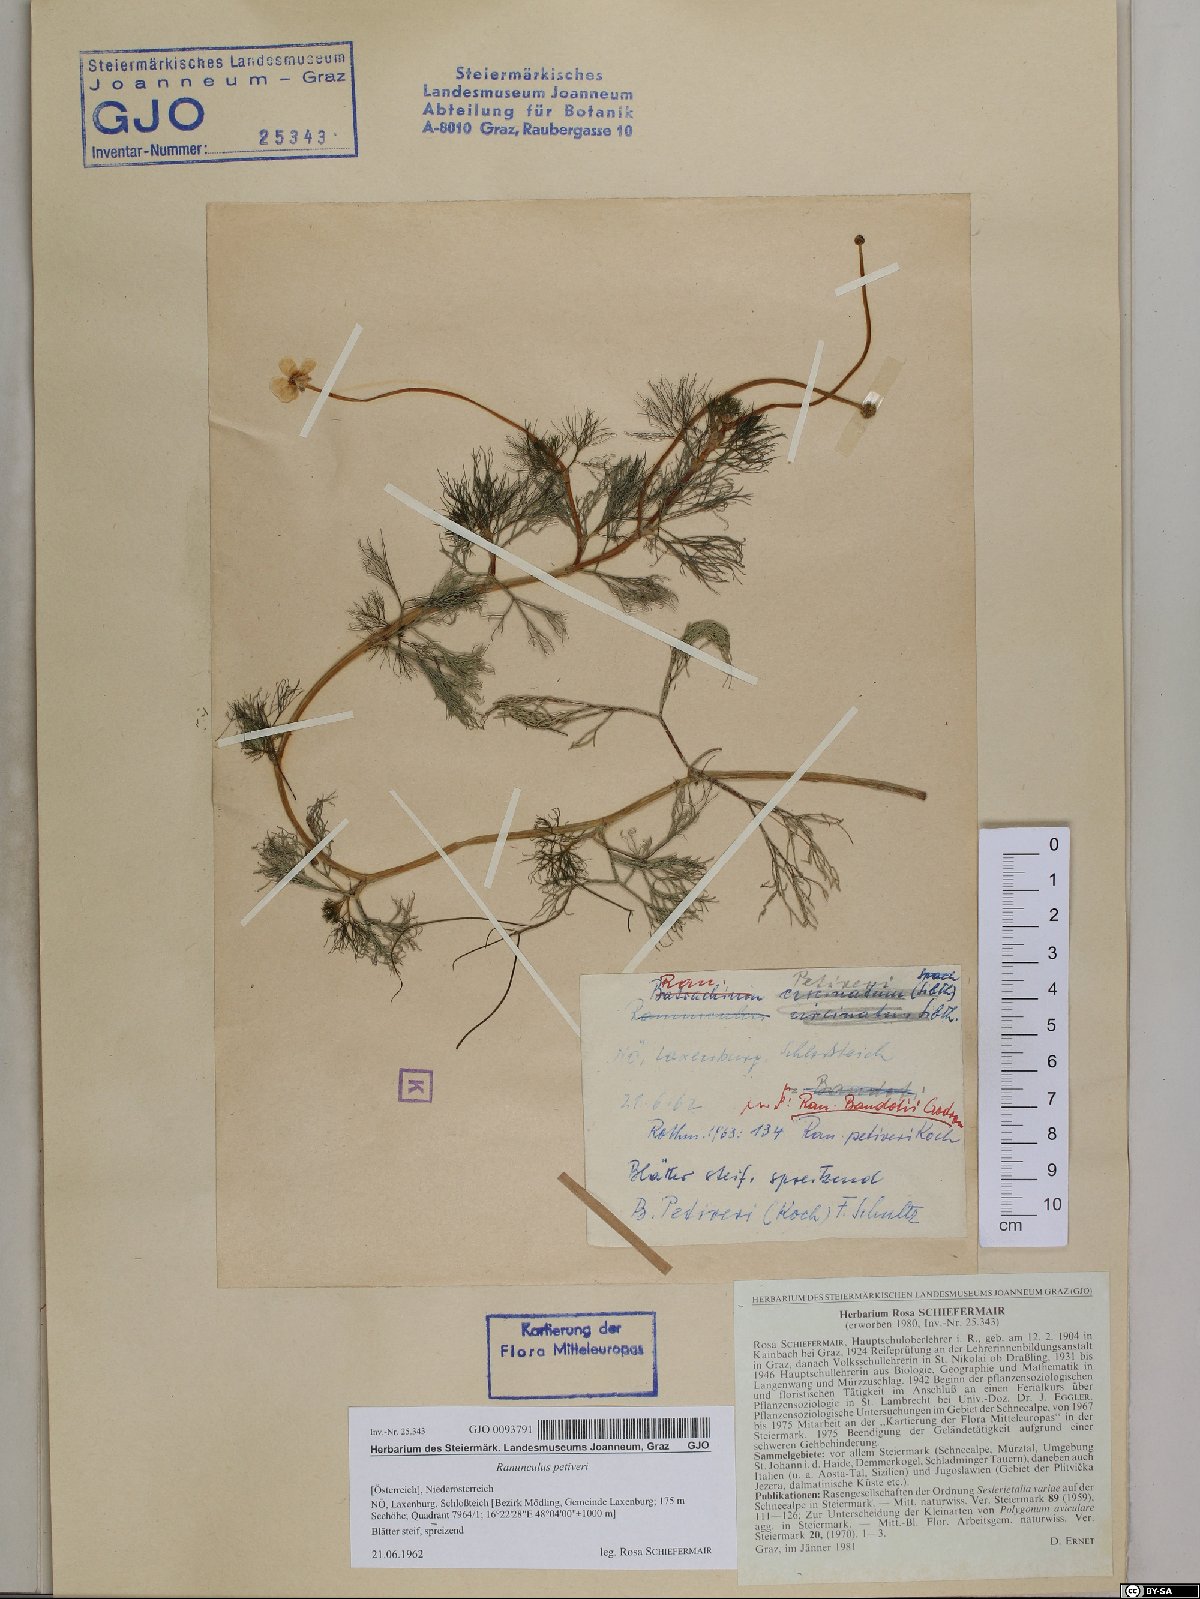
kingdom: Plantae
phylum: Tracheophyta
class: Magnoliopsida
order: Ranunculales
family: Ranunculaceae
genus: Ranunculus
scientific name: Ranunculus tripartitus
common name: Three-lobed crowfoot
